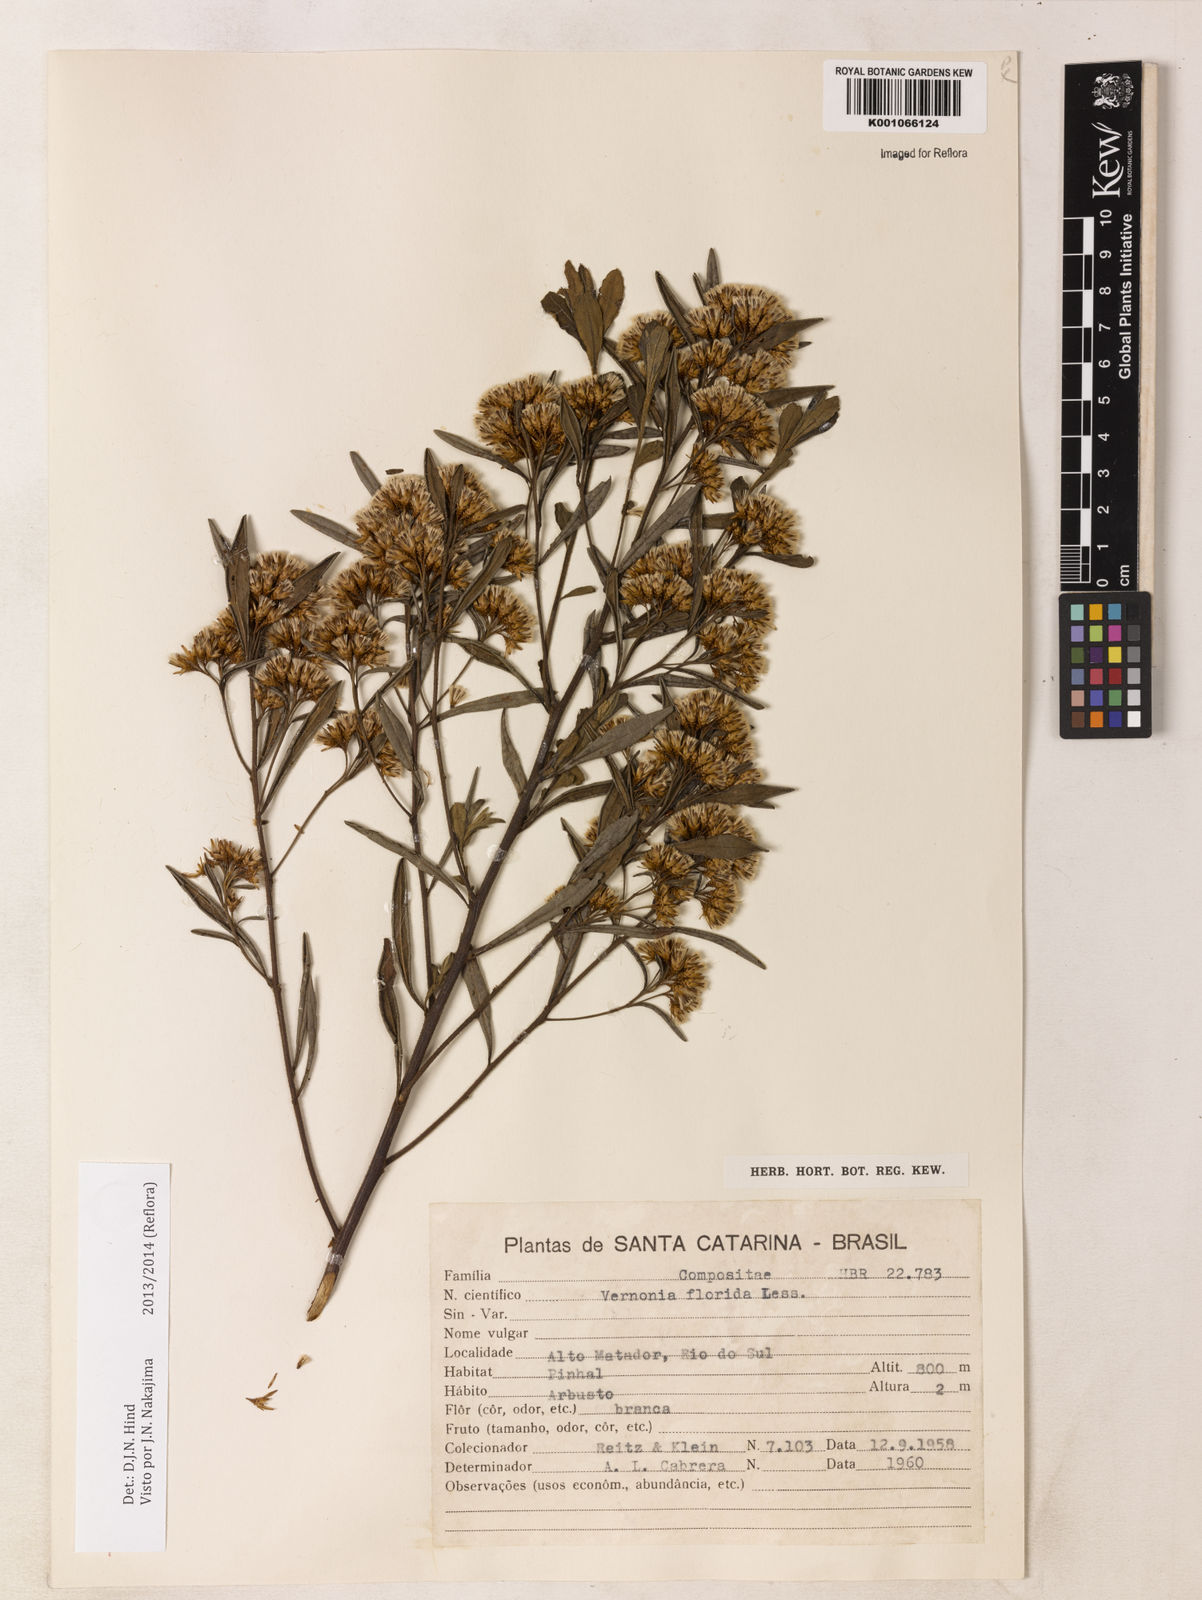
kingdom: Plantae
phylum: Tracheophyta
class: Magnoliopsida
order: Asterales
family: Asteraceae
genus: Vernonanthura
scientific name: Vernonanthura montevidensis
